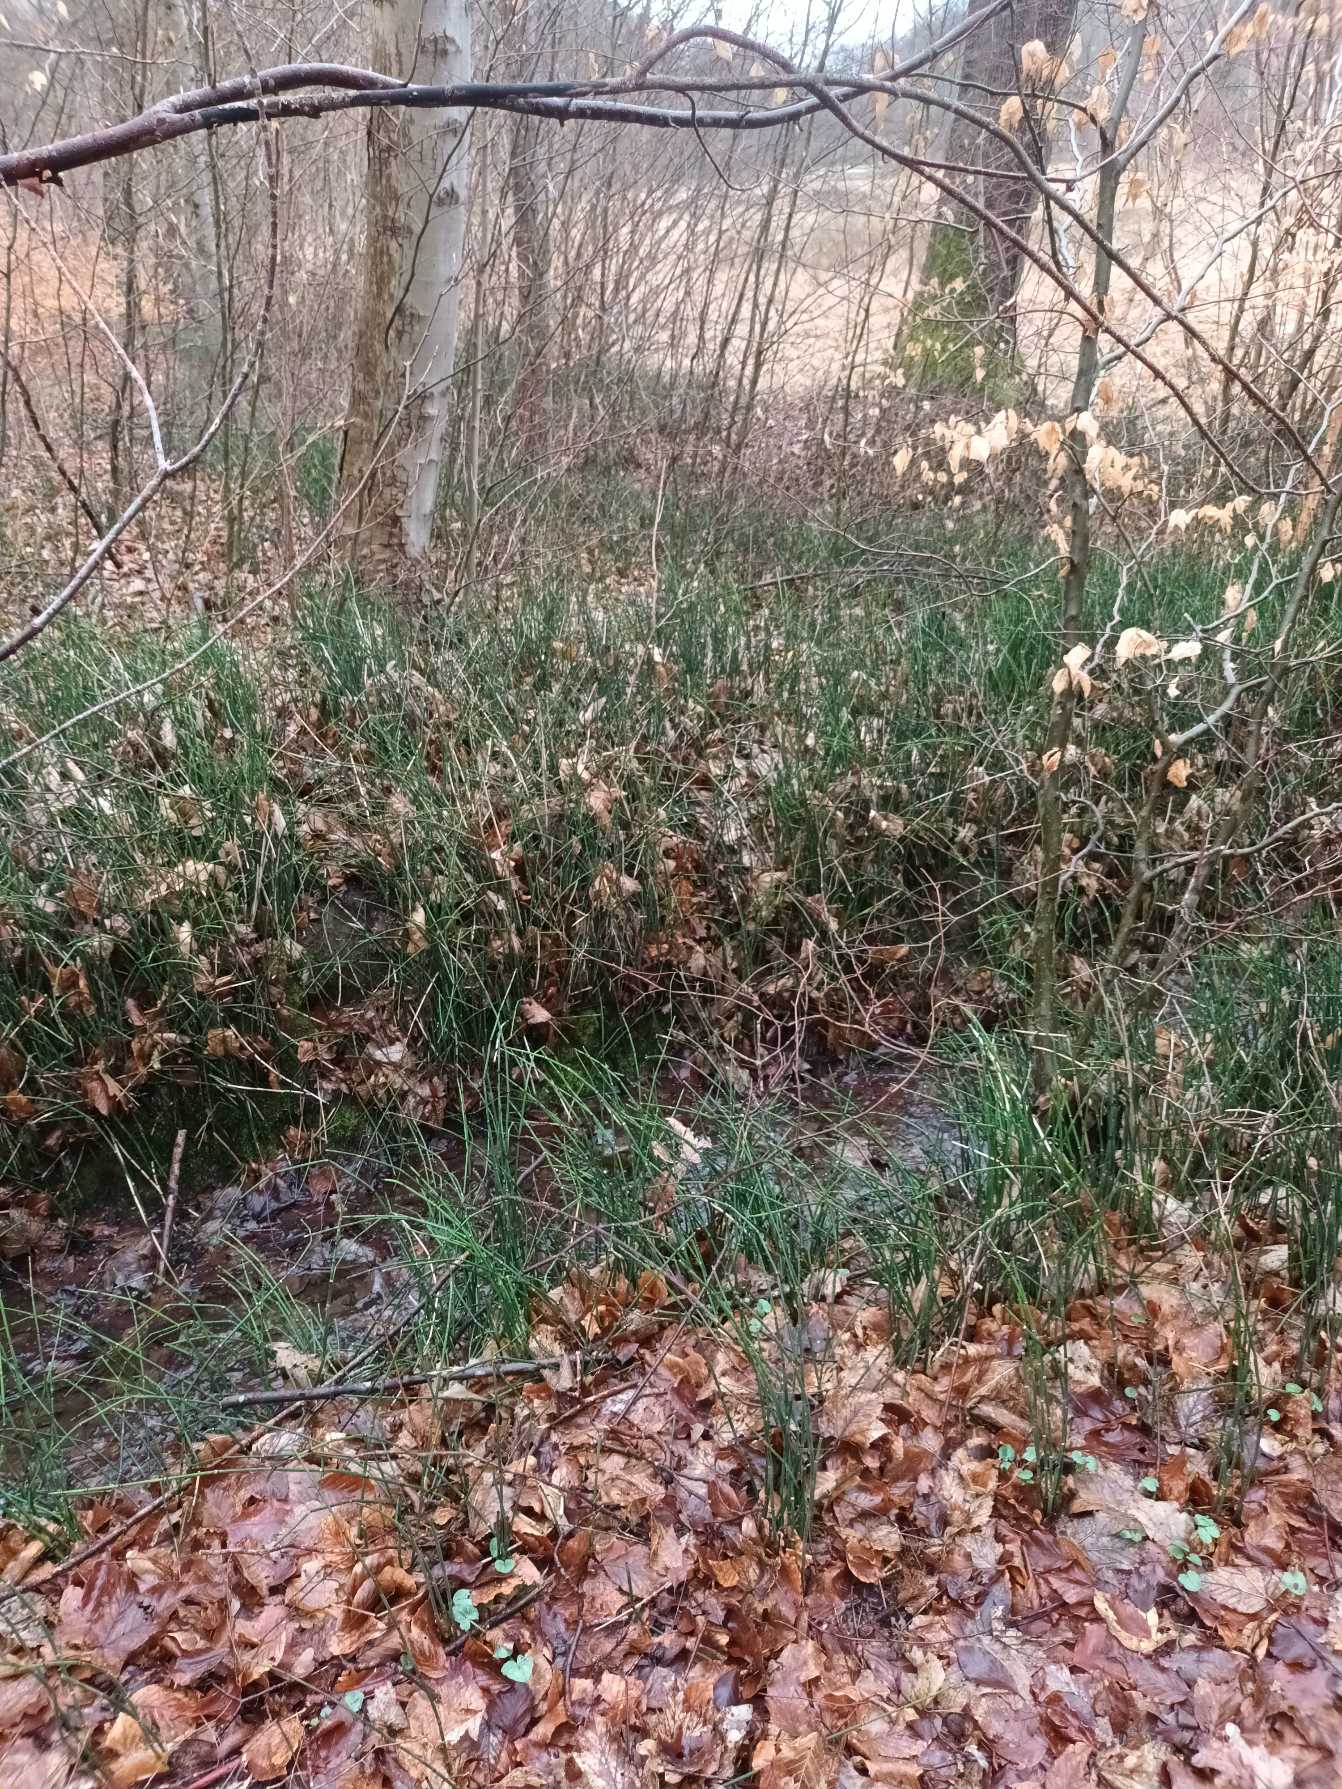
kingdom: Plantae
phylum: Tracheophyta
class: Polypodiopsida
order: Equisetales
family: Equisetaceae
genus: Equisetum
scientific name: Equisetum hyemale
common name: Skavgræs
